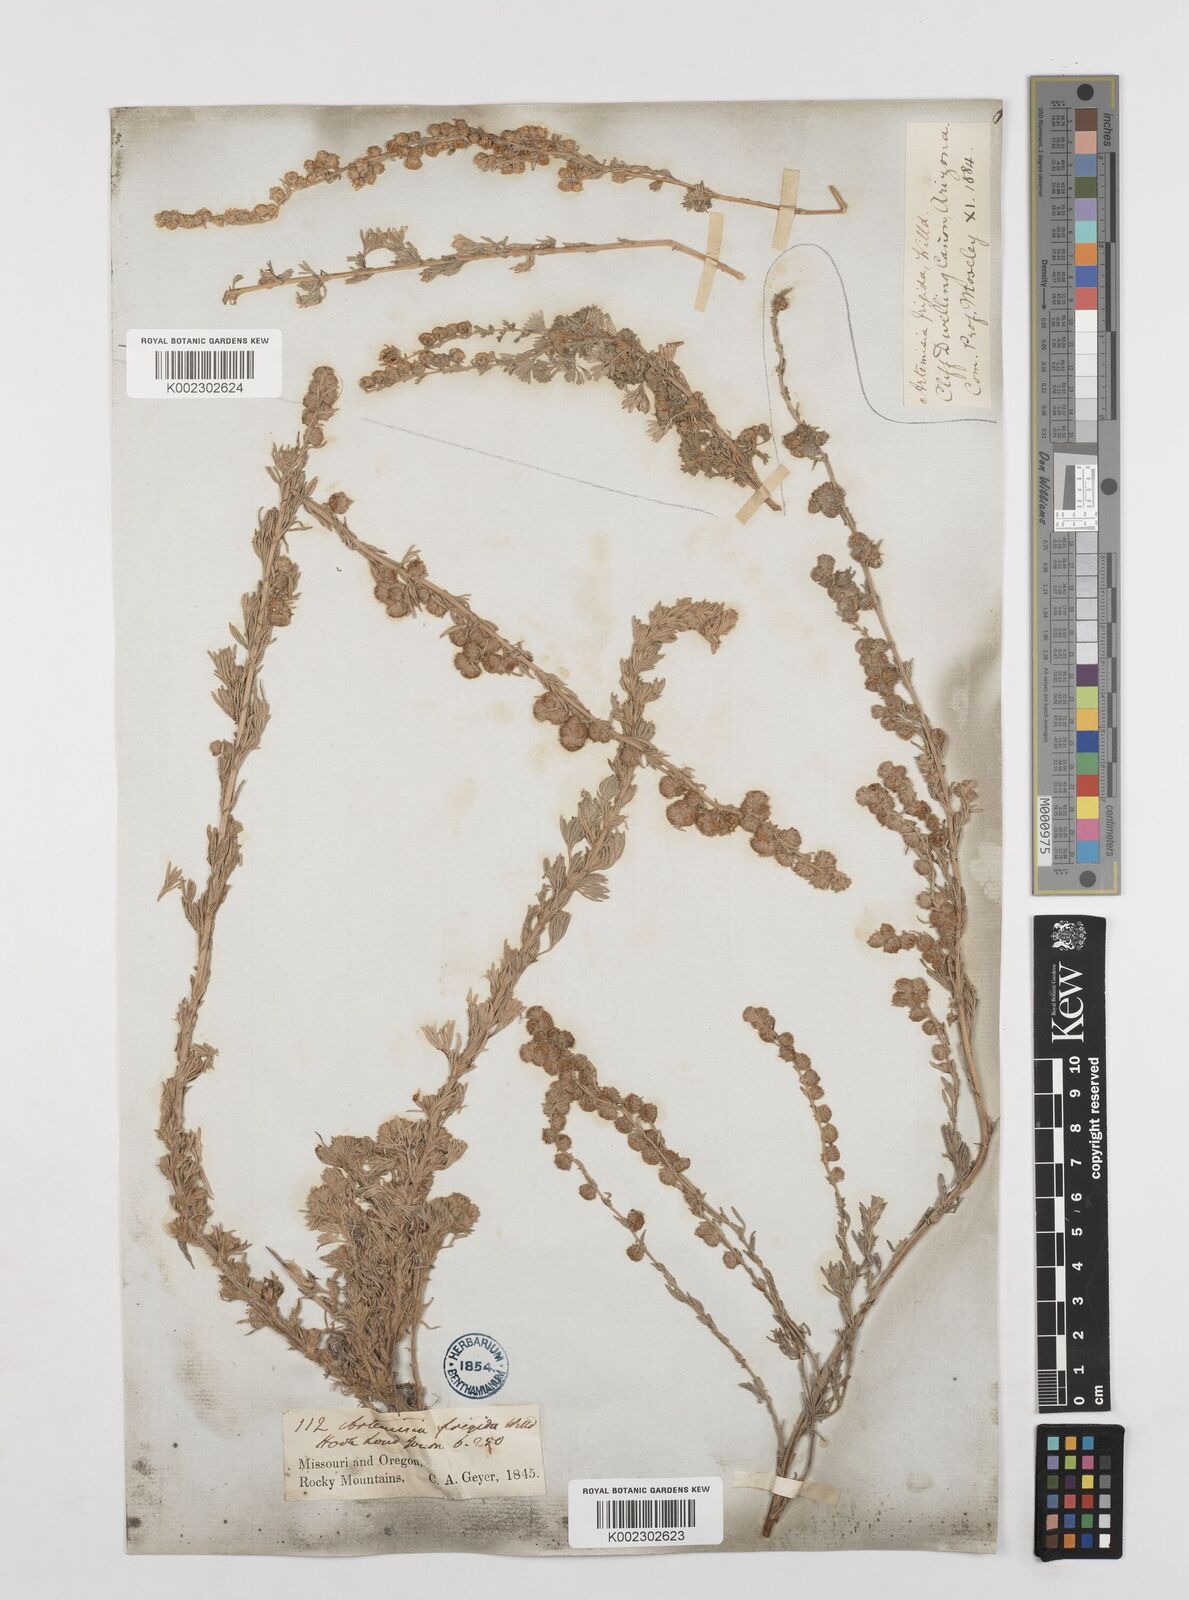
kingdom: Plantae
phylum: Tracheophyta
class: Magnoliopsida
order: Asterales
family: Asteraceae
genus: Artemisia
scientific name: Artemisia frigida
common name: Prairie sagewort
